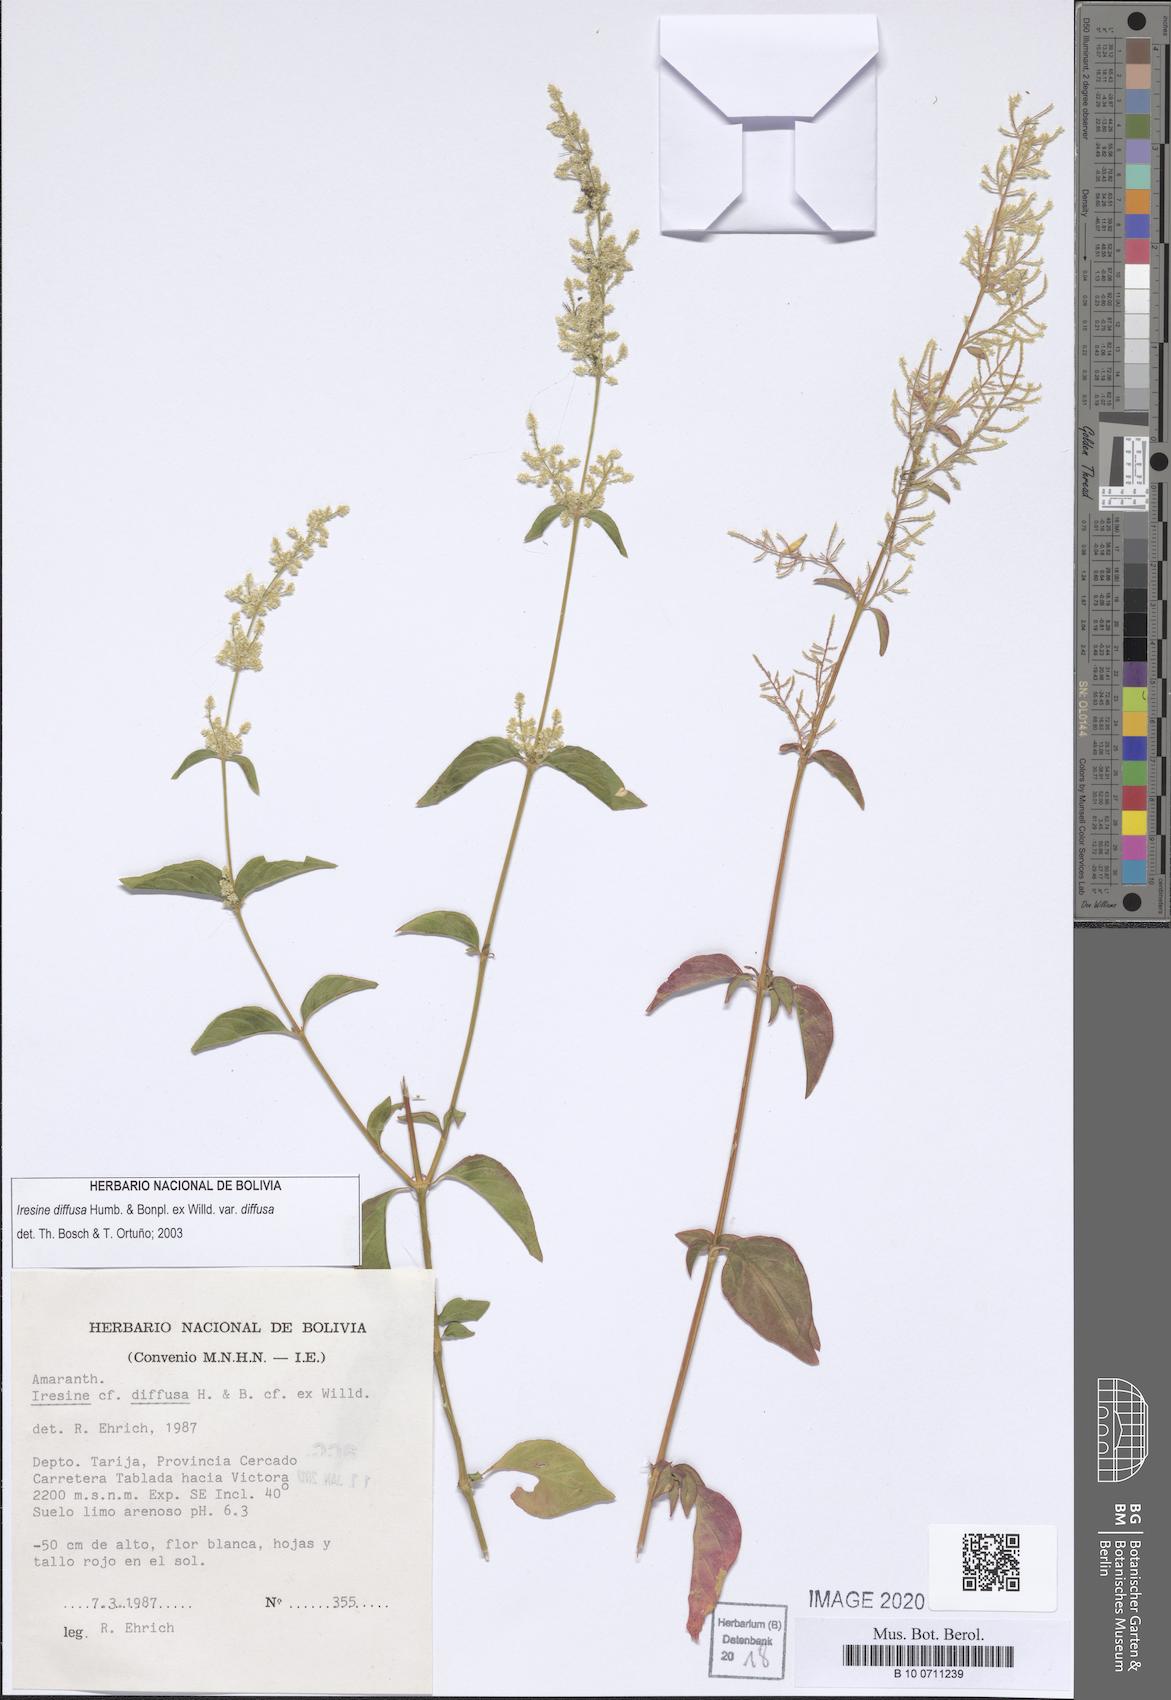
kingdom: Plantae
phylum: Tracheophyta
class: Magnoliopsida
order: Caryophyllales
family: Amaranthaceae
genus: Iresine
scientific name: Iresine diffusa
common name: Juba's-bush
